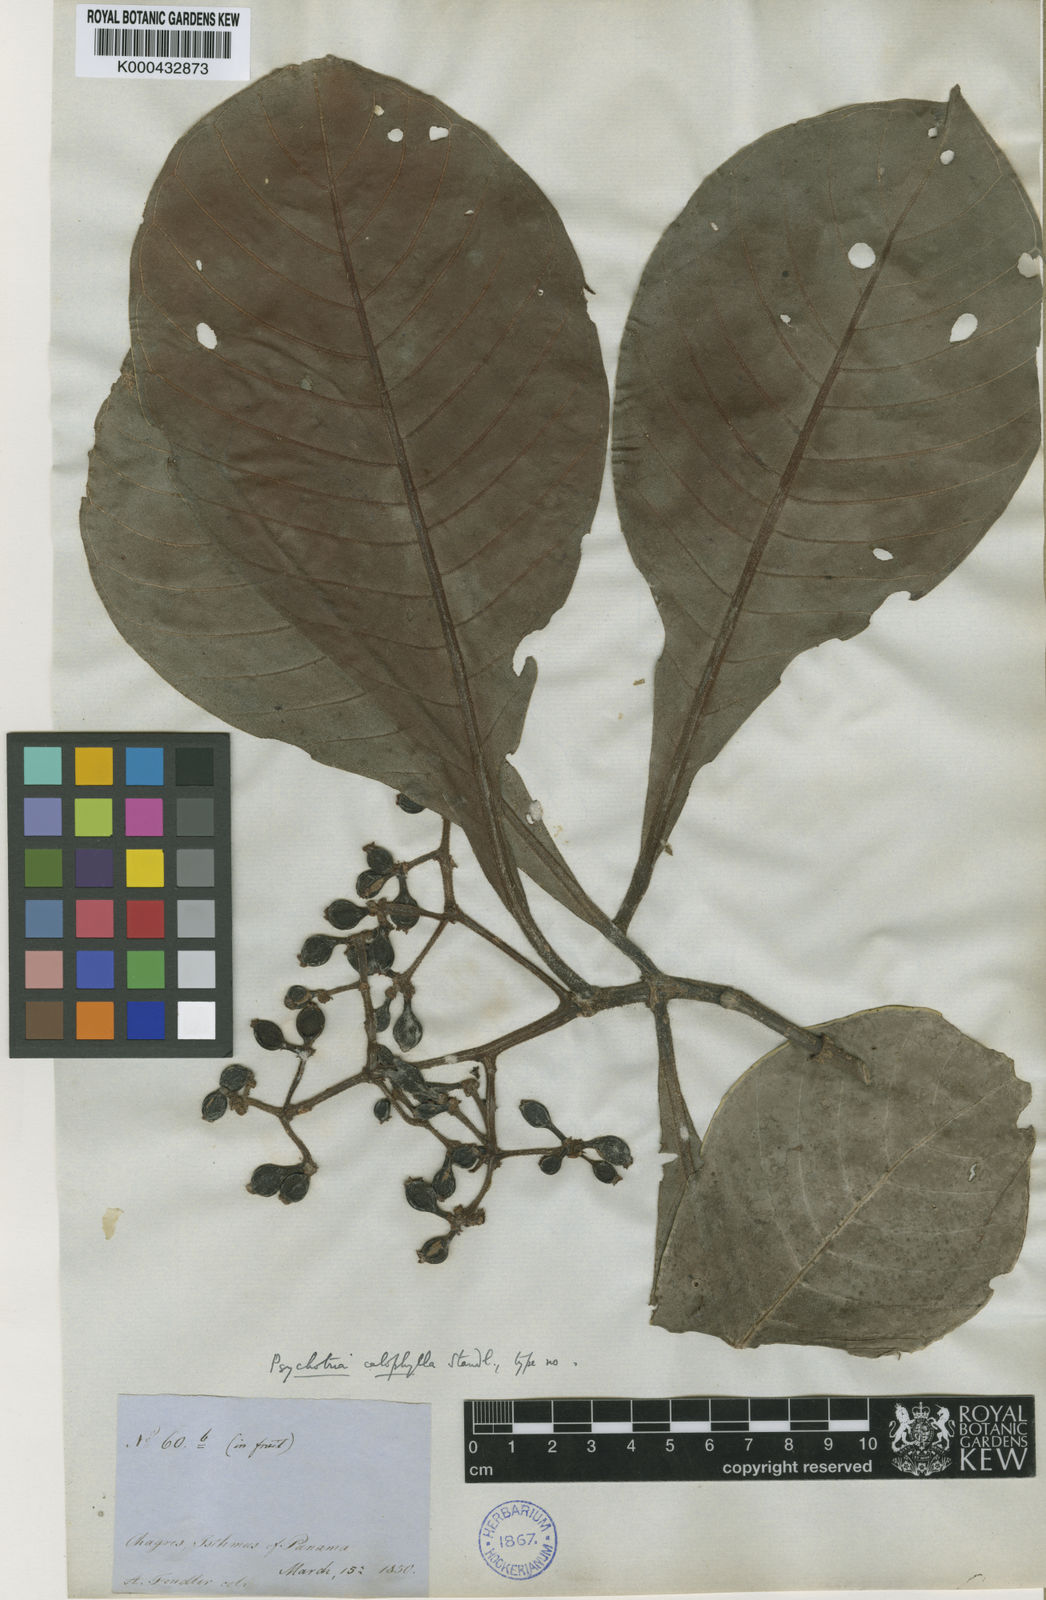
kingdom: Plantae
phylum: Tracheophyta
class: Magnoliopsida
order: Gentianales
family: Rubiaceae
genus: Psychotria
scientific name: Psychotria calophylla
